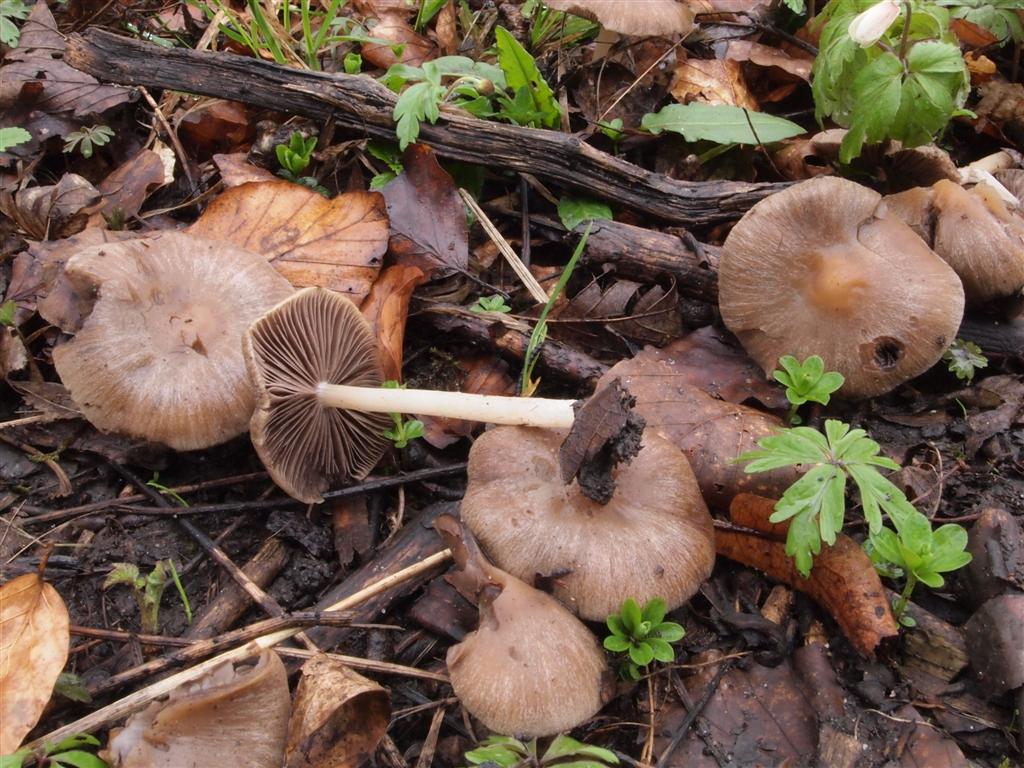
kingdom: Fungi
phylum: Basidiomycota
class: Agaricomycetes
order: Agaricales
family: Psathyrellaceae
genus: Psathyrella
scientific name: Psathyrella spadiceogrisea
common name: gråbrun mørkhat
